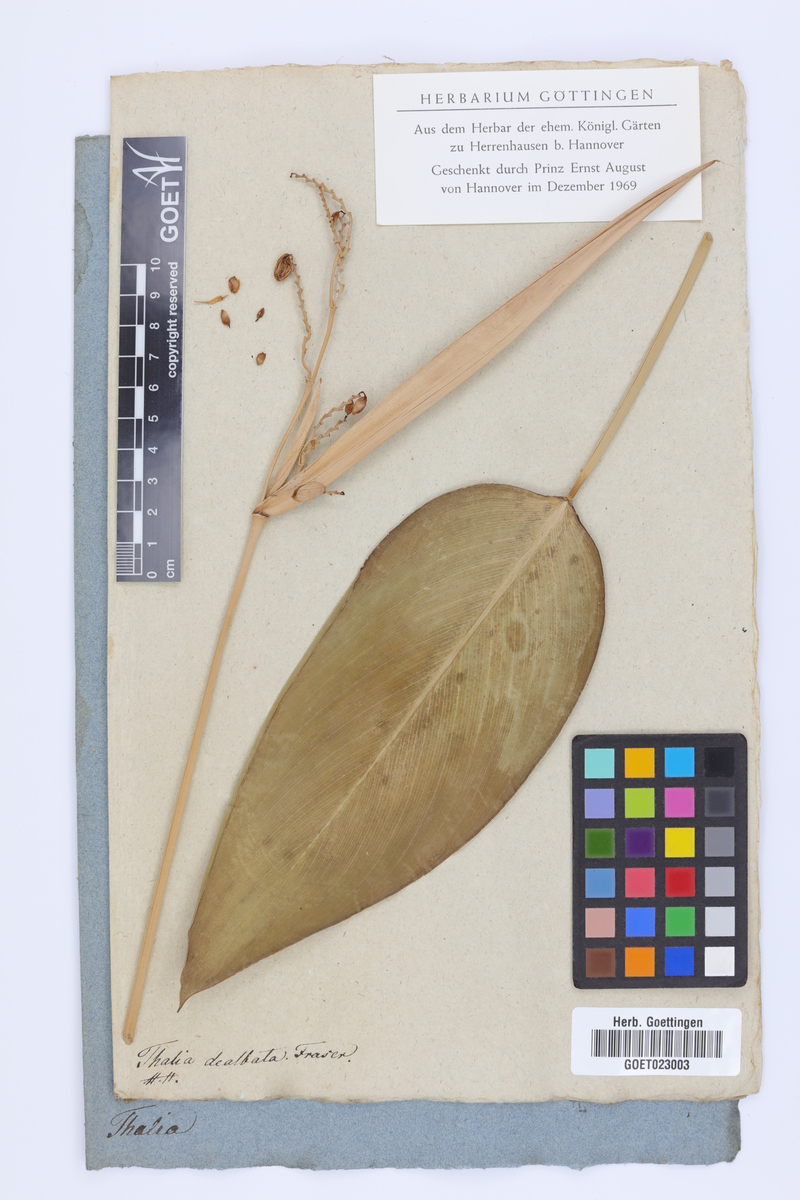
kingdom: Plantae
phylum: Tracheophyta
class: Liliopsida
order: Zingiberales
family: Marantaceae
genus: Thalia
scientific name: Thalia dealbata
